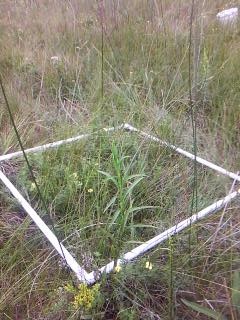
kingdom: Plantae
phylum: Tracheophyta
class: Liliopsida
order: Poales
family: Poaceae
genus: Andropogon
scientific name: Andropogon gerardi
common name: Big bluestem
